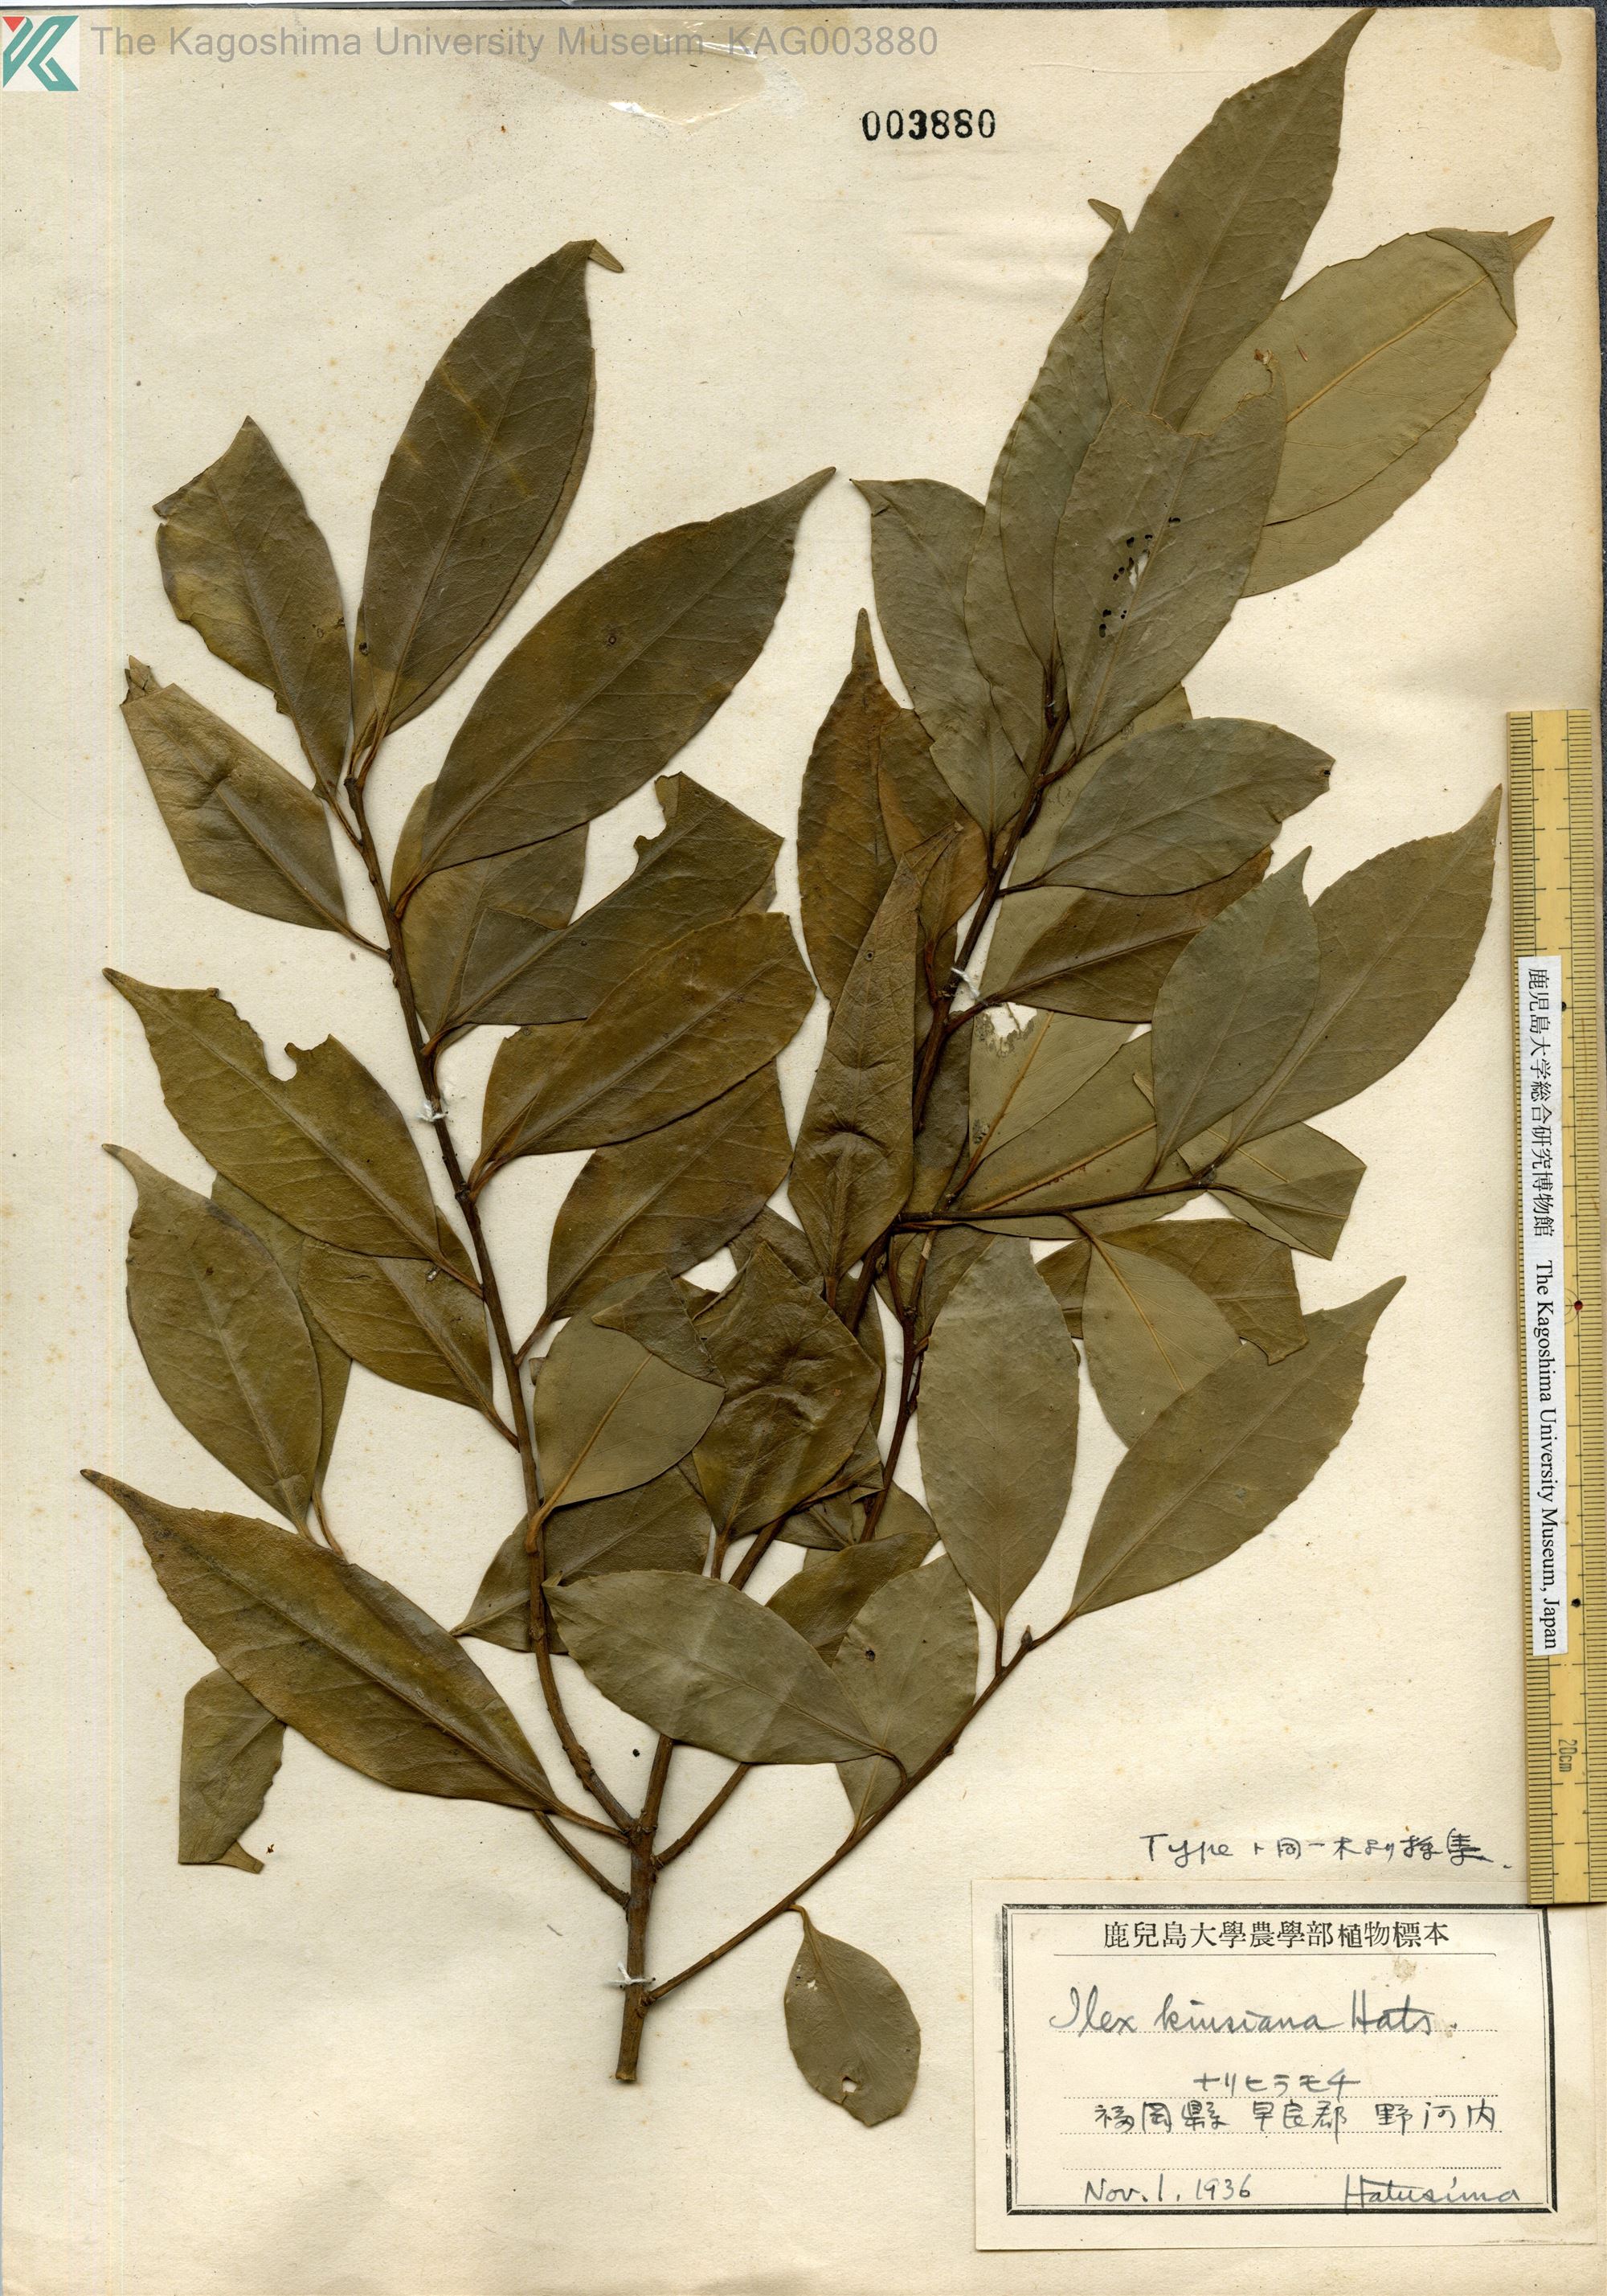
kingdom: Plantae
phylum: Tracheophyta
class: Magnoliopsida
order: Aquifoliales
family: Aquifoliaceae
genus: Ilex
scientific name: Ilex kiusiana
